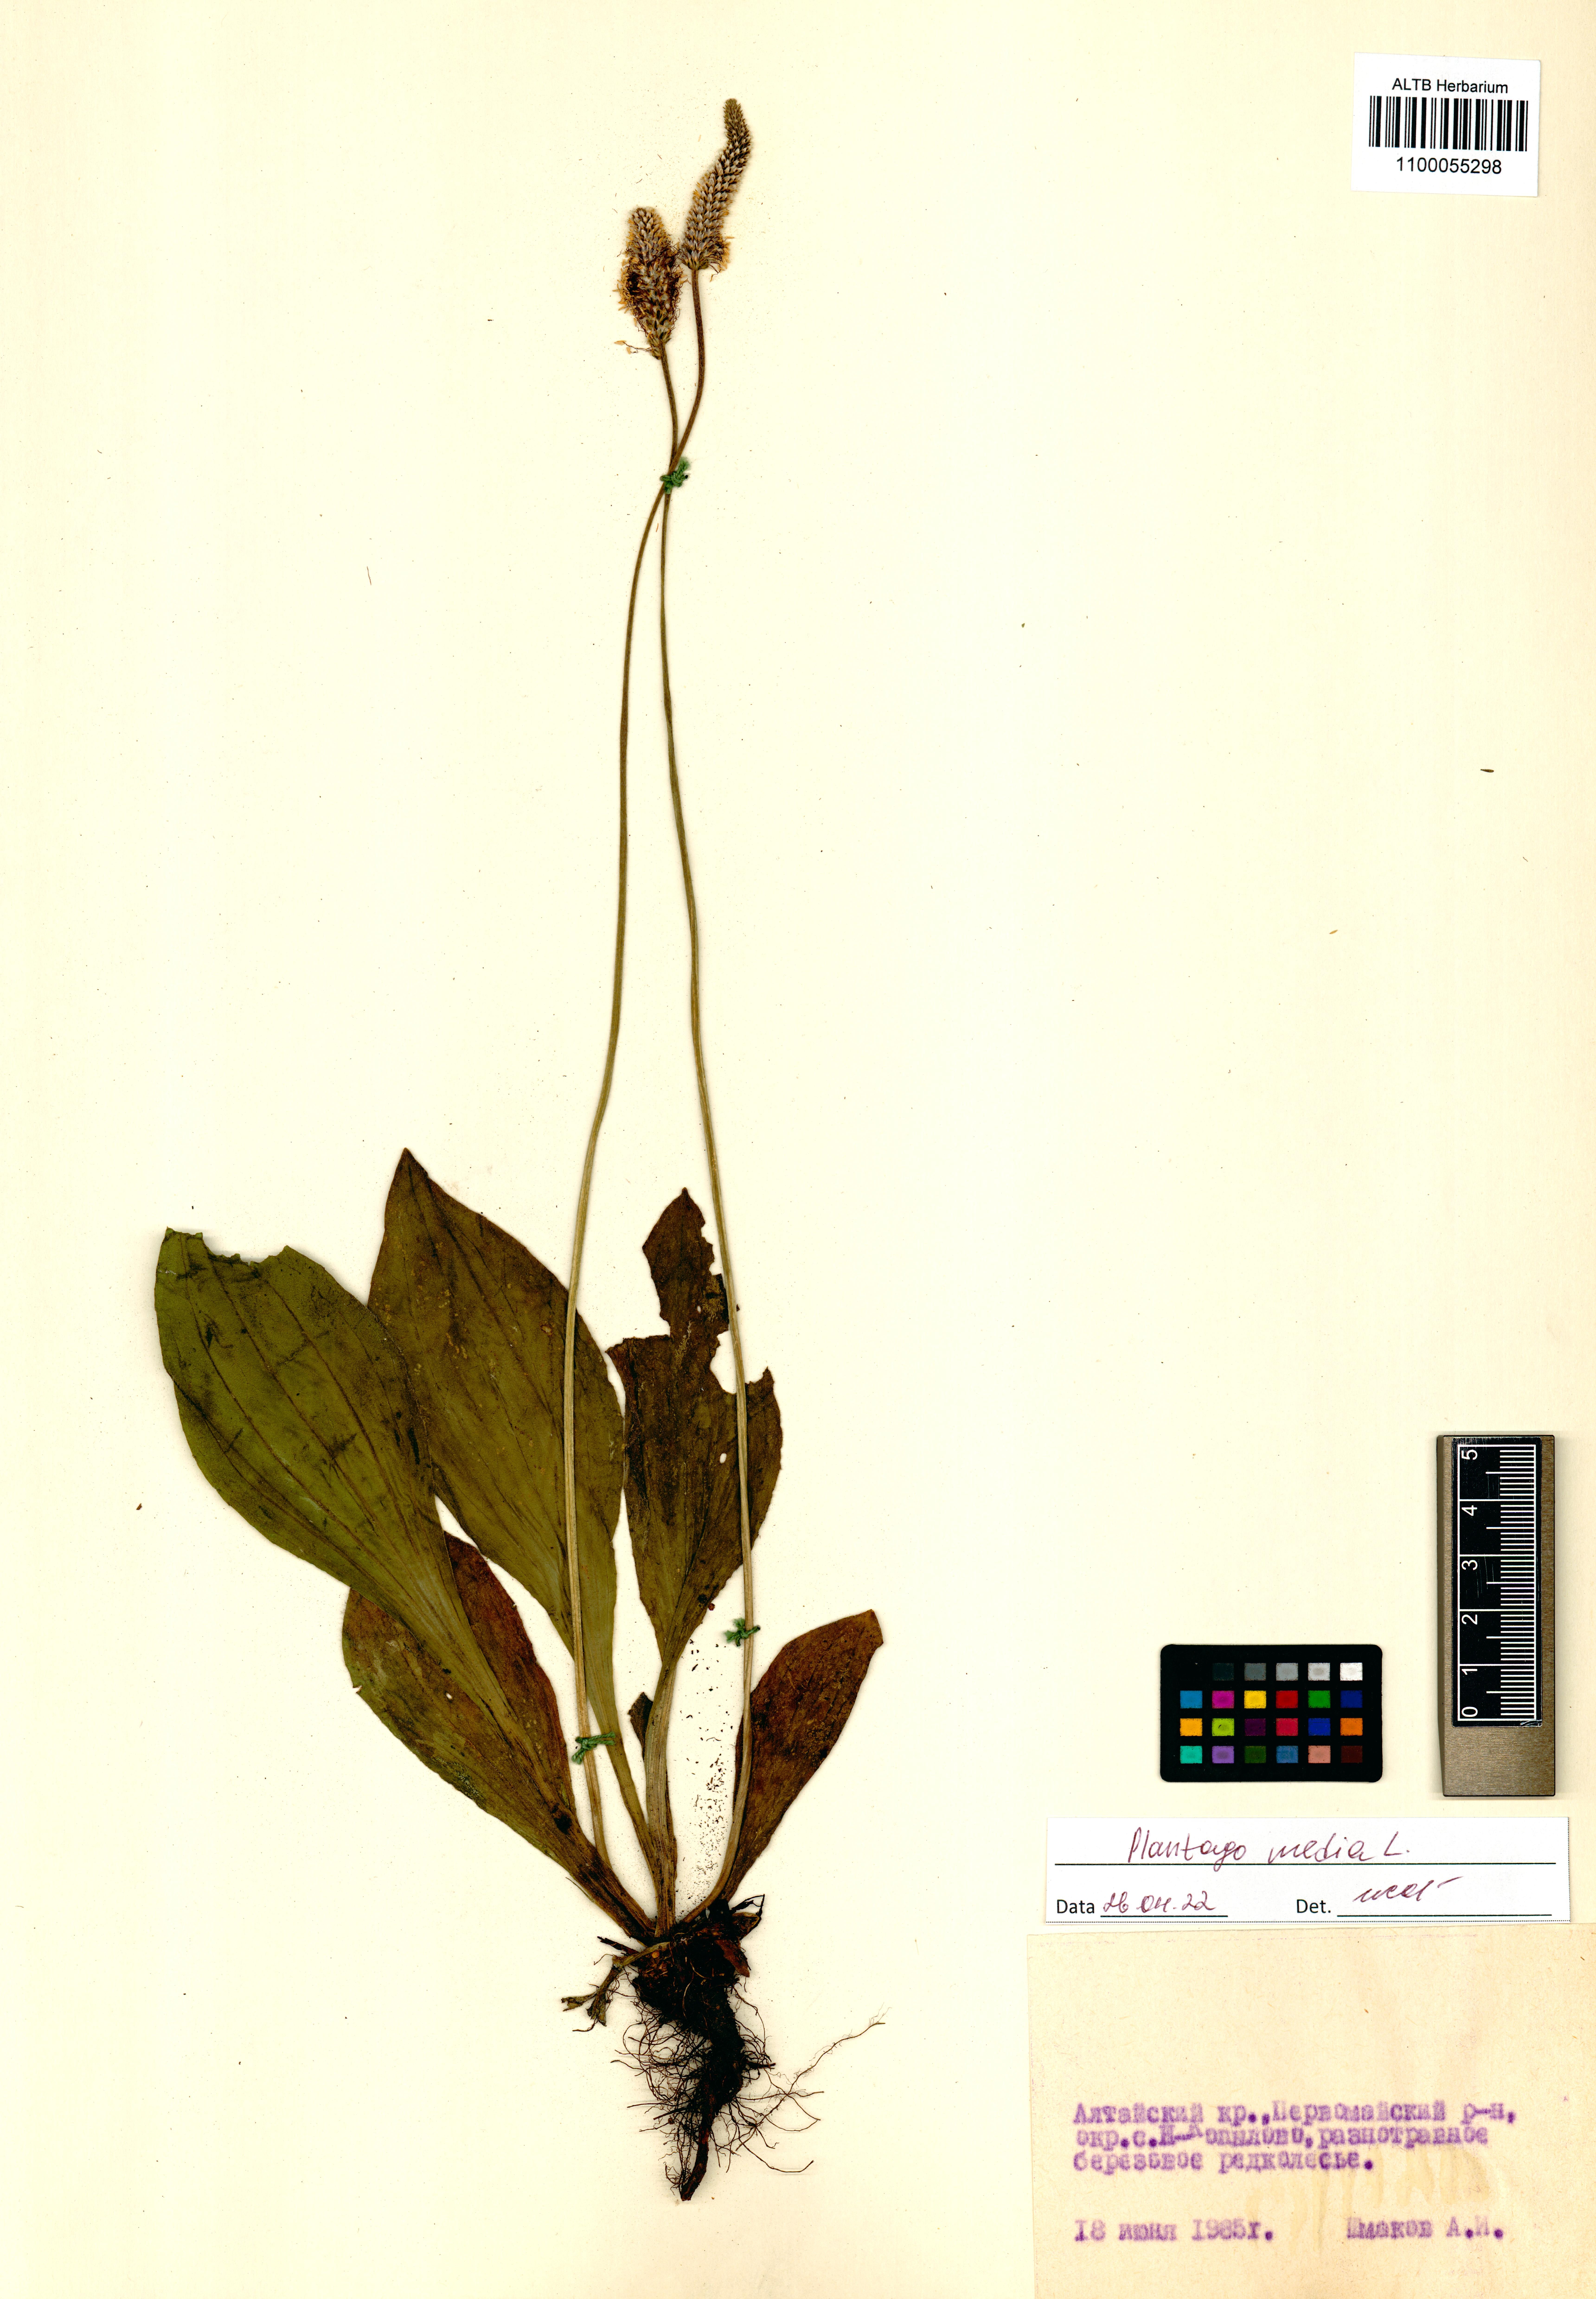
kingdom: Plantae
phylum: Tracheophyta
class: Magnoliopsida
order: Lamiales
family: Plantaginaceae
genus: Plantago
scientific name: Plantago media
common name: Hoary plantain
